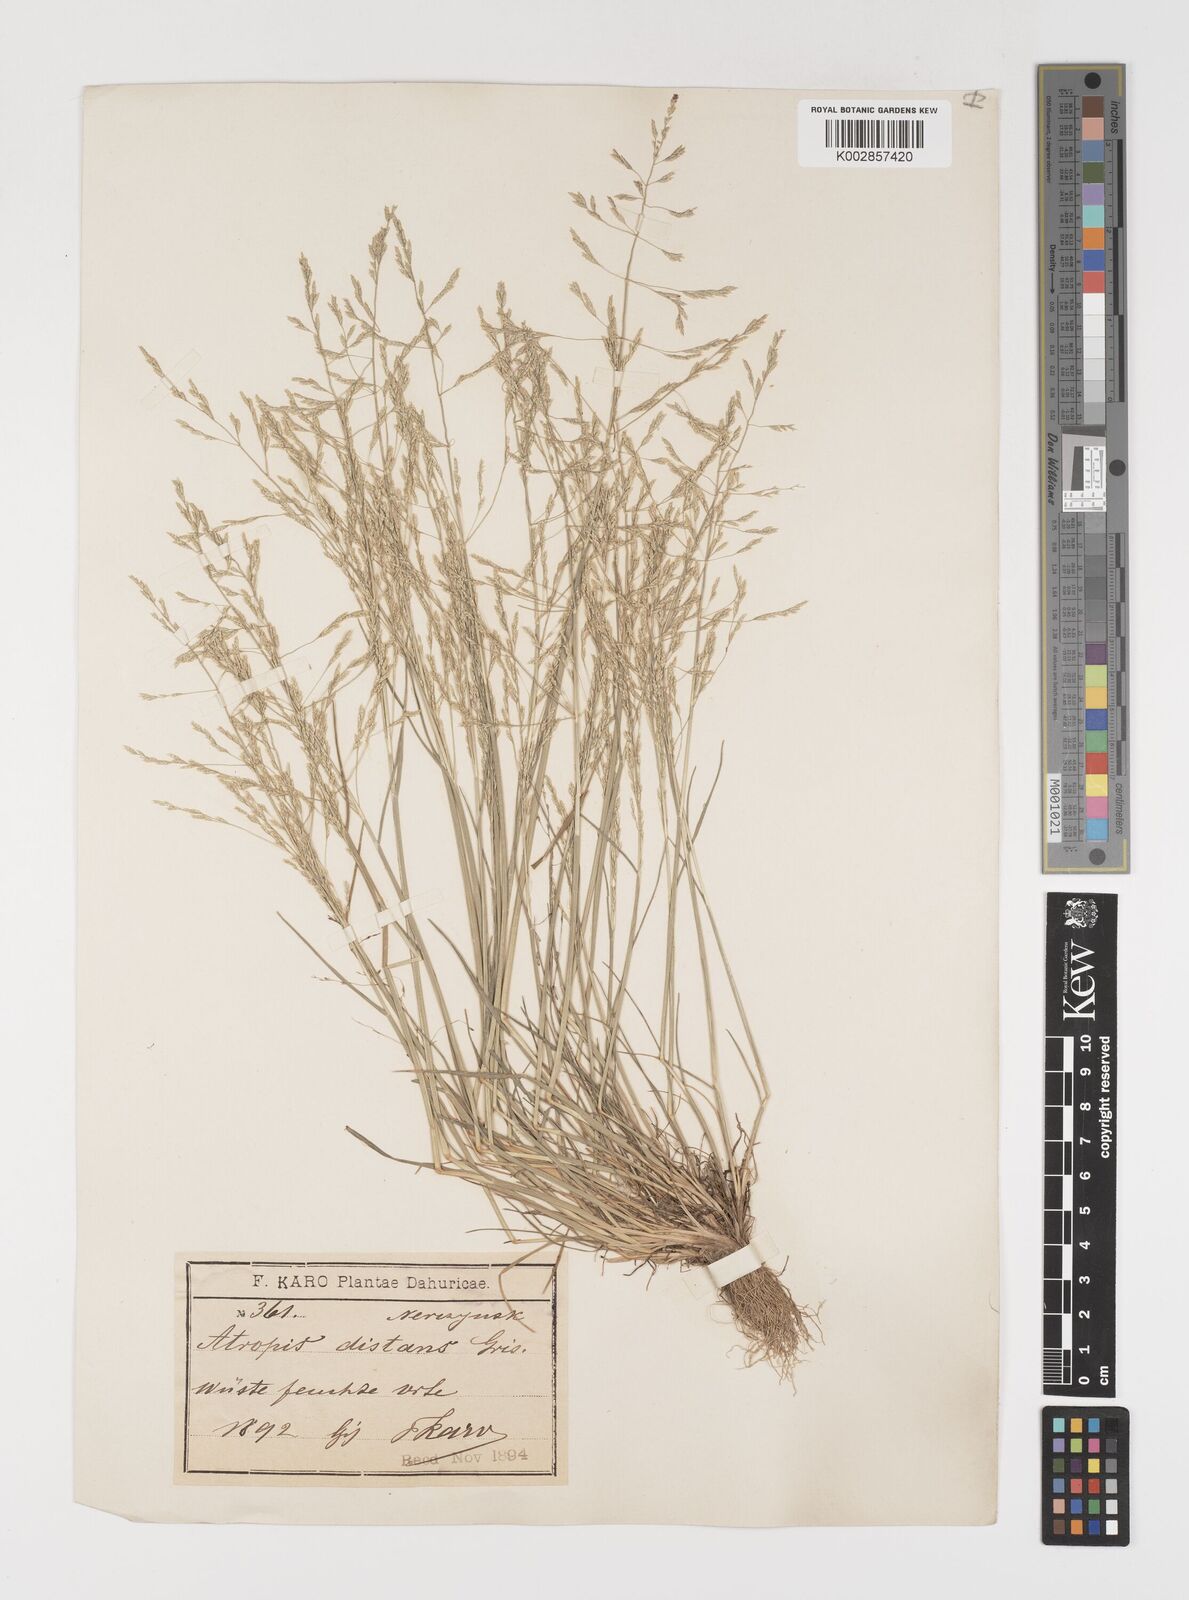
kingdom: Plantae
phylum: Tracheophyta
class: Liliopsida
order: Poales
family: Poaceae
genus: Puccinellia
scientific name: Puccinellia distans
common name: Weeping alkaligrass
